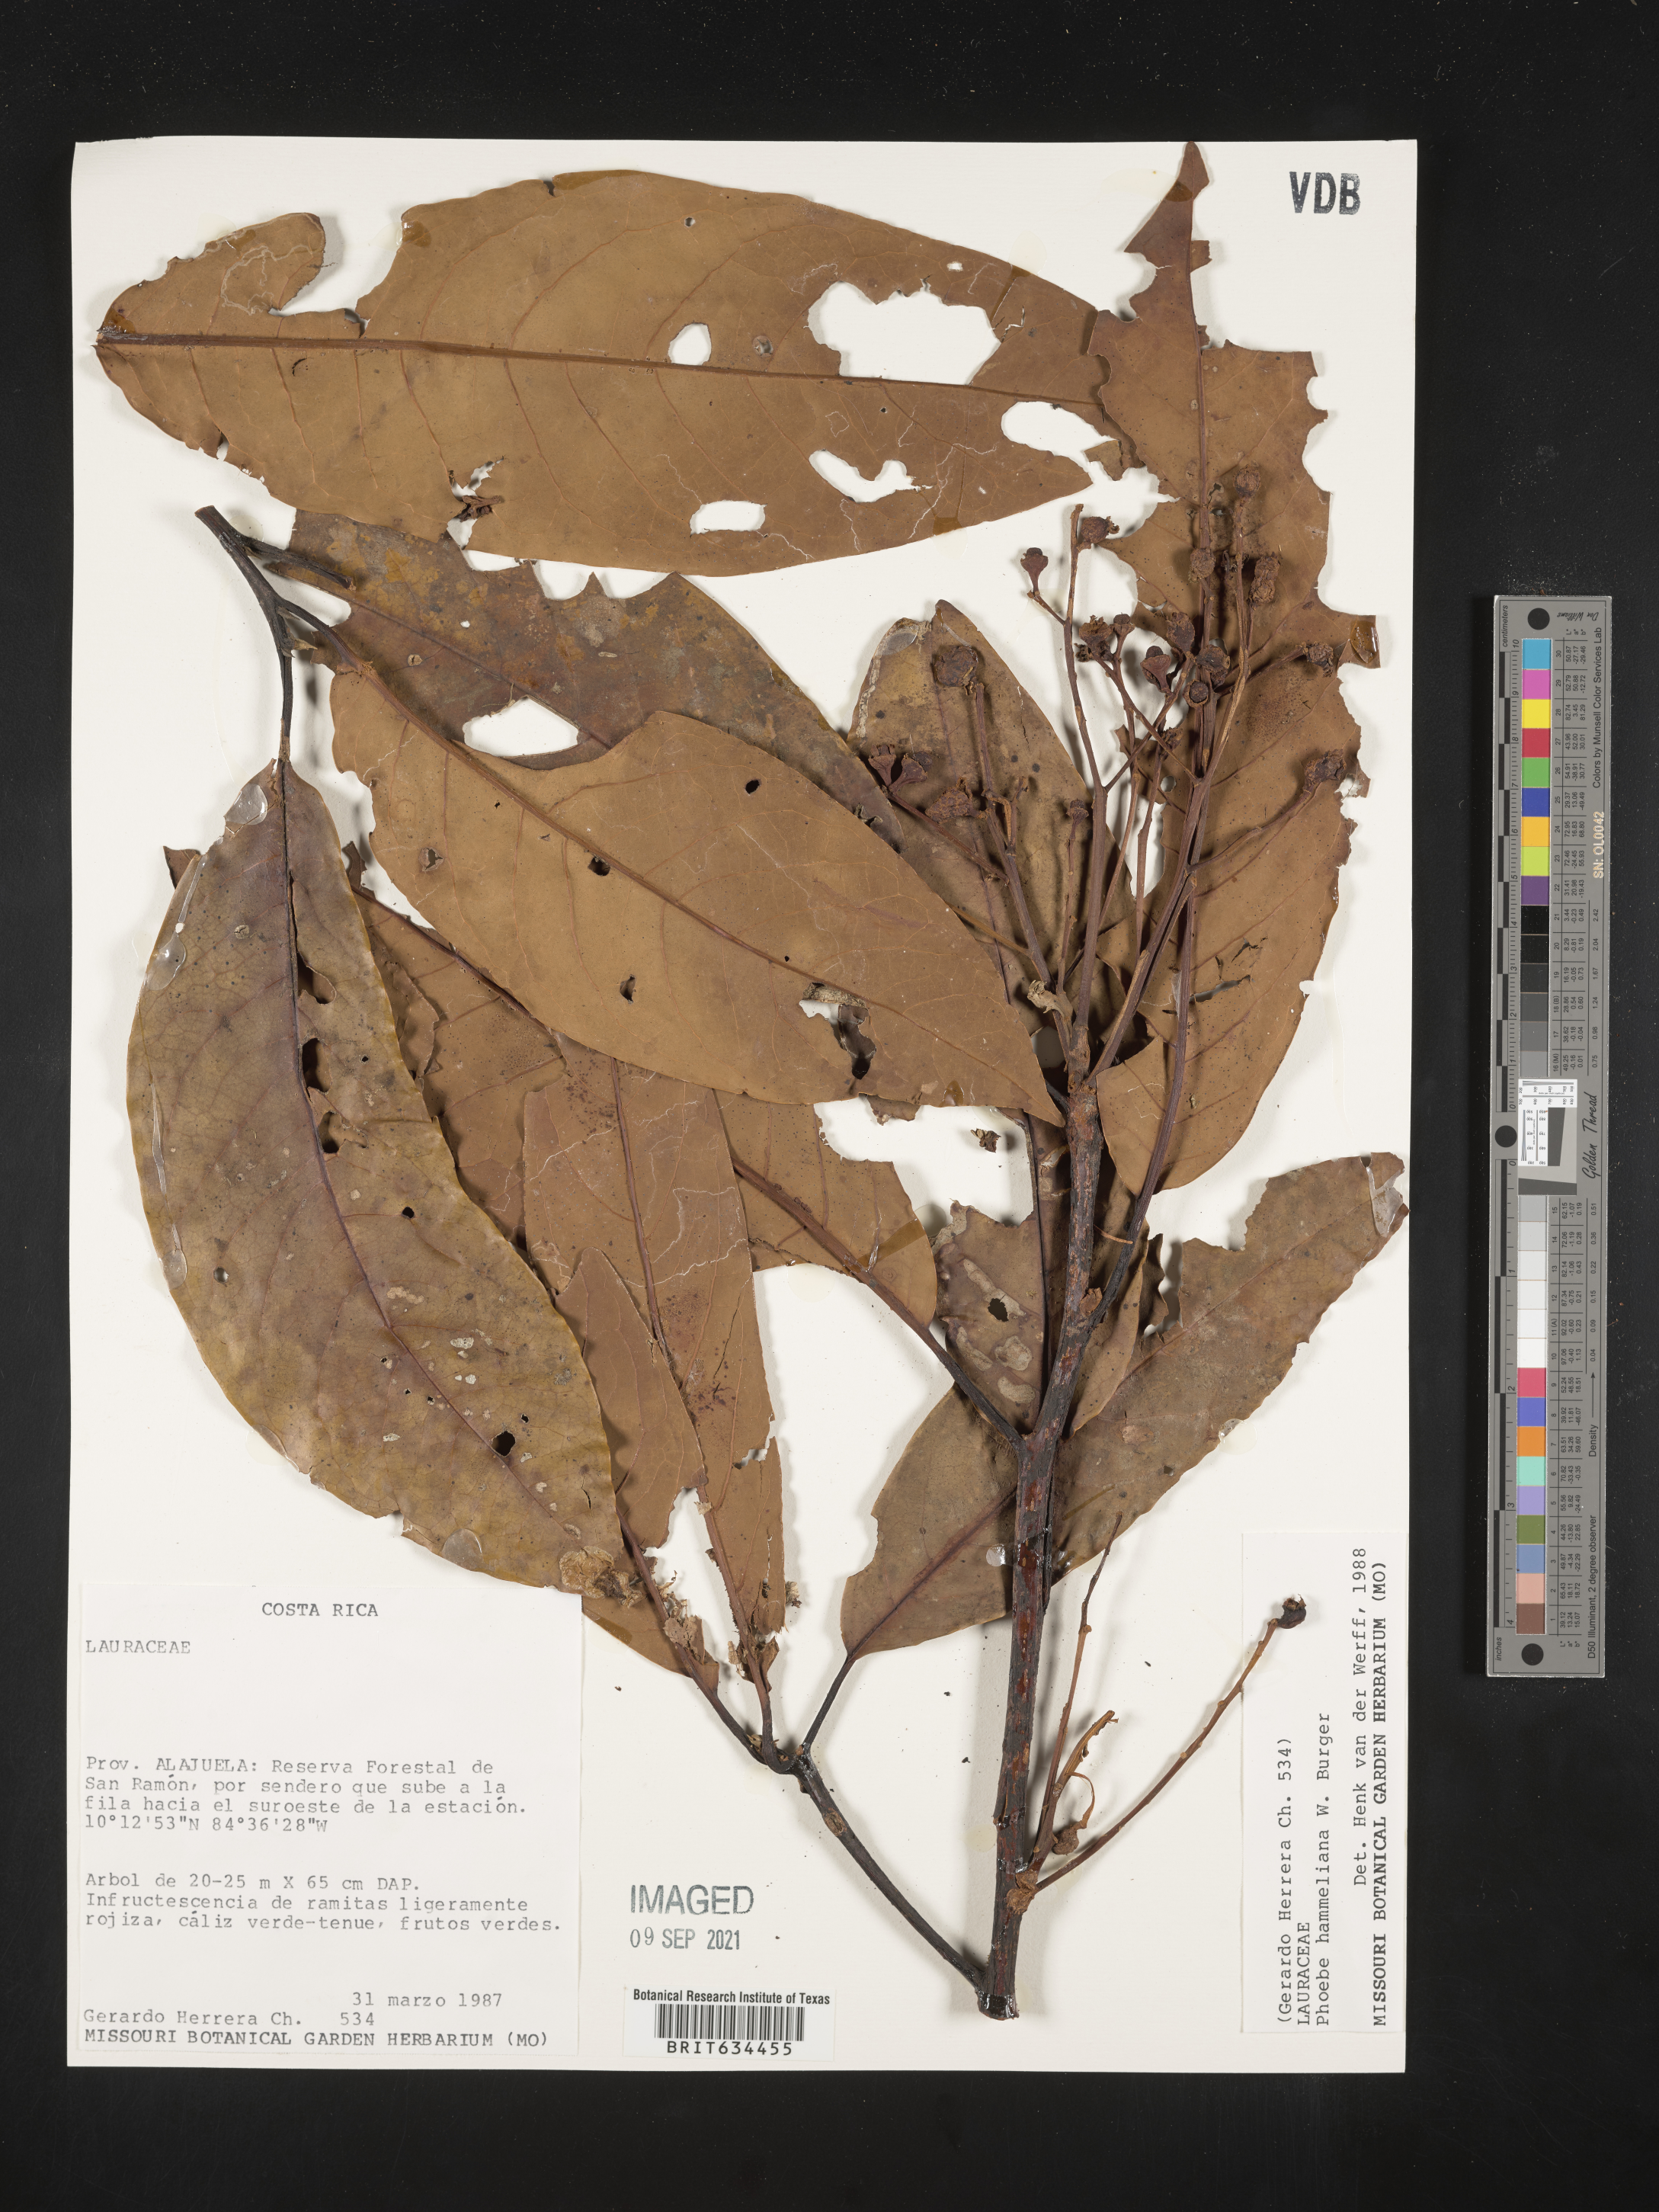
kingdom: Plantae
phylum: Tracheophyta
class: Magnoliopsida
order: Laurales
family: Lauraceae
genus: Phoebe
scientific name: Phoebe
